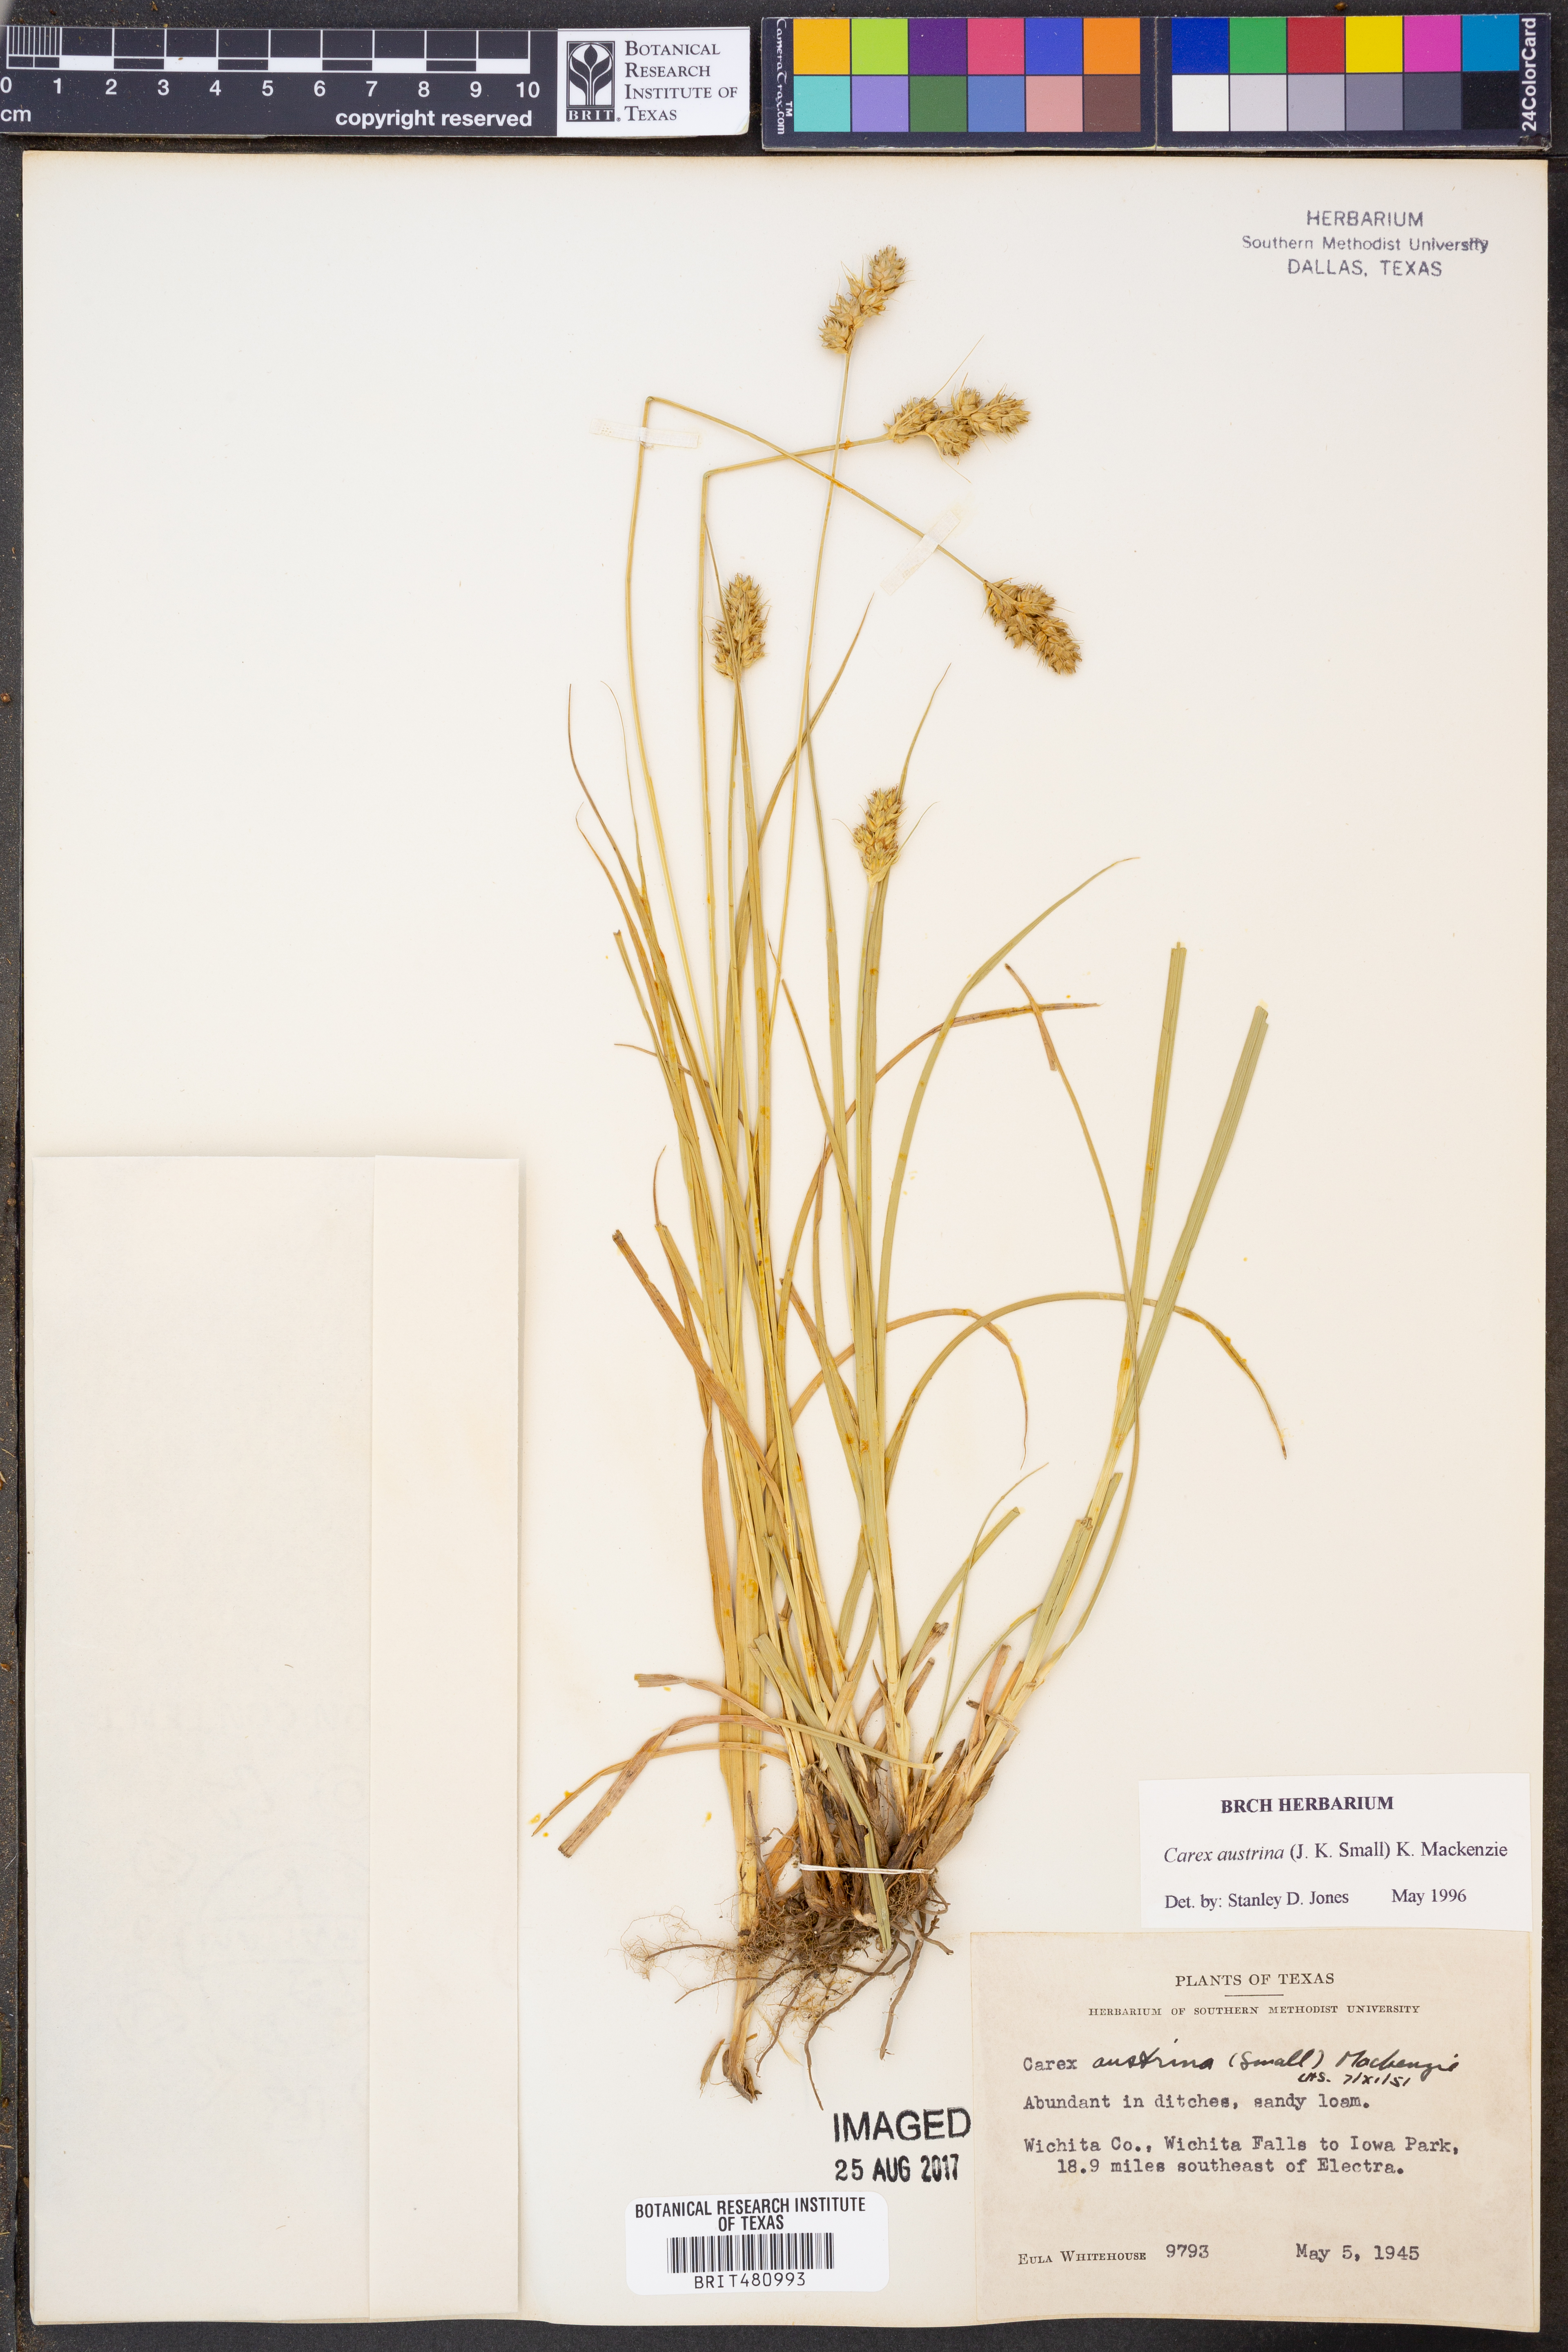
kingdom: Plantae
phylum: Tracheophyta
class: Liliopsida
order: Poales
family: Cyperaceae
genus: Carex
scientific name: Carex austrina
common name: Southern sedge
